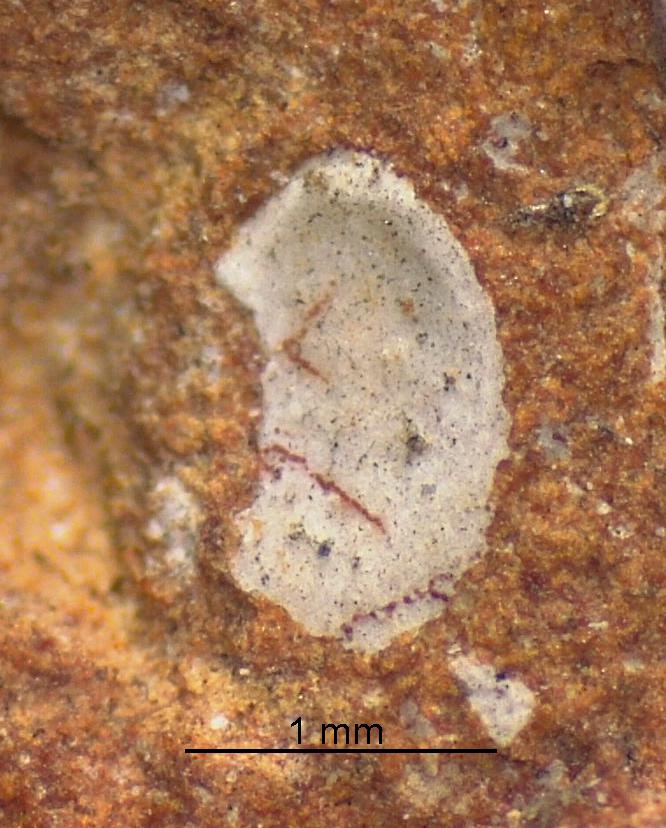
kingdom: Animalia
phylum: Brachiopoda
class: Craniata
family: Craniopsidae
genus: Pseudopholidops
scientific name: Pseudopholidops
